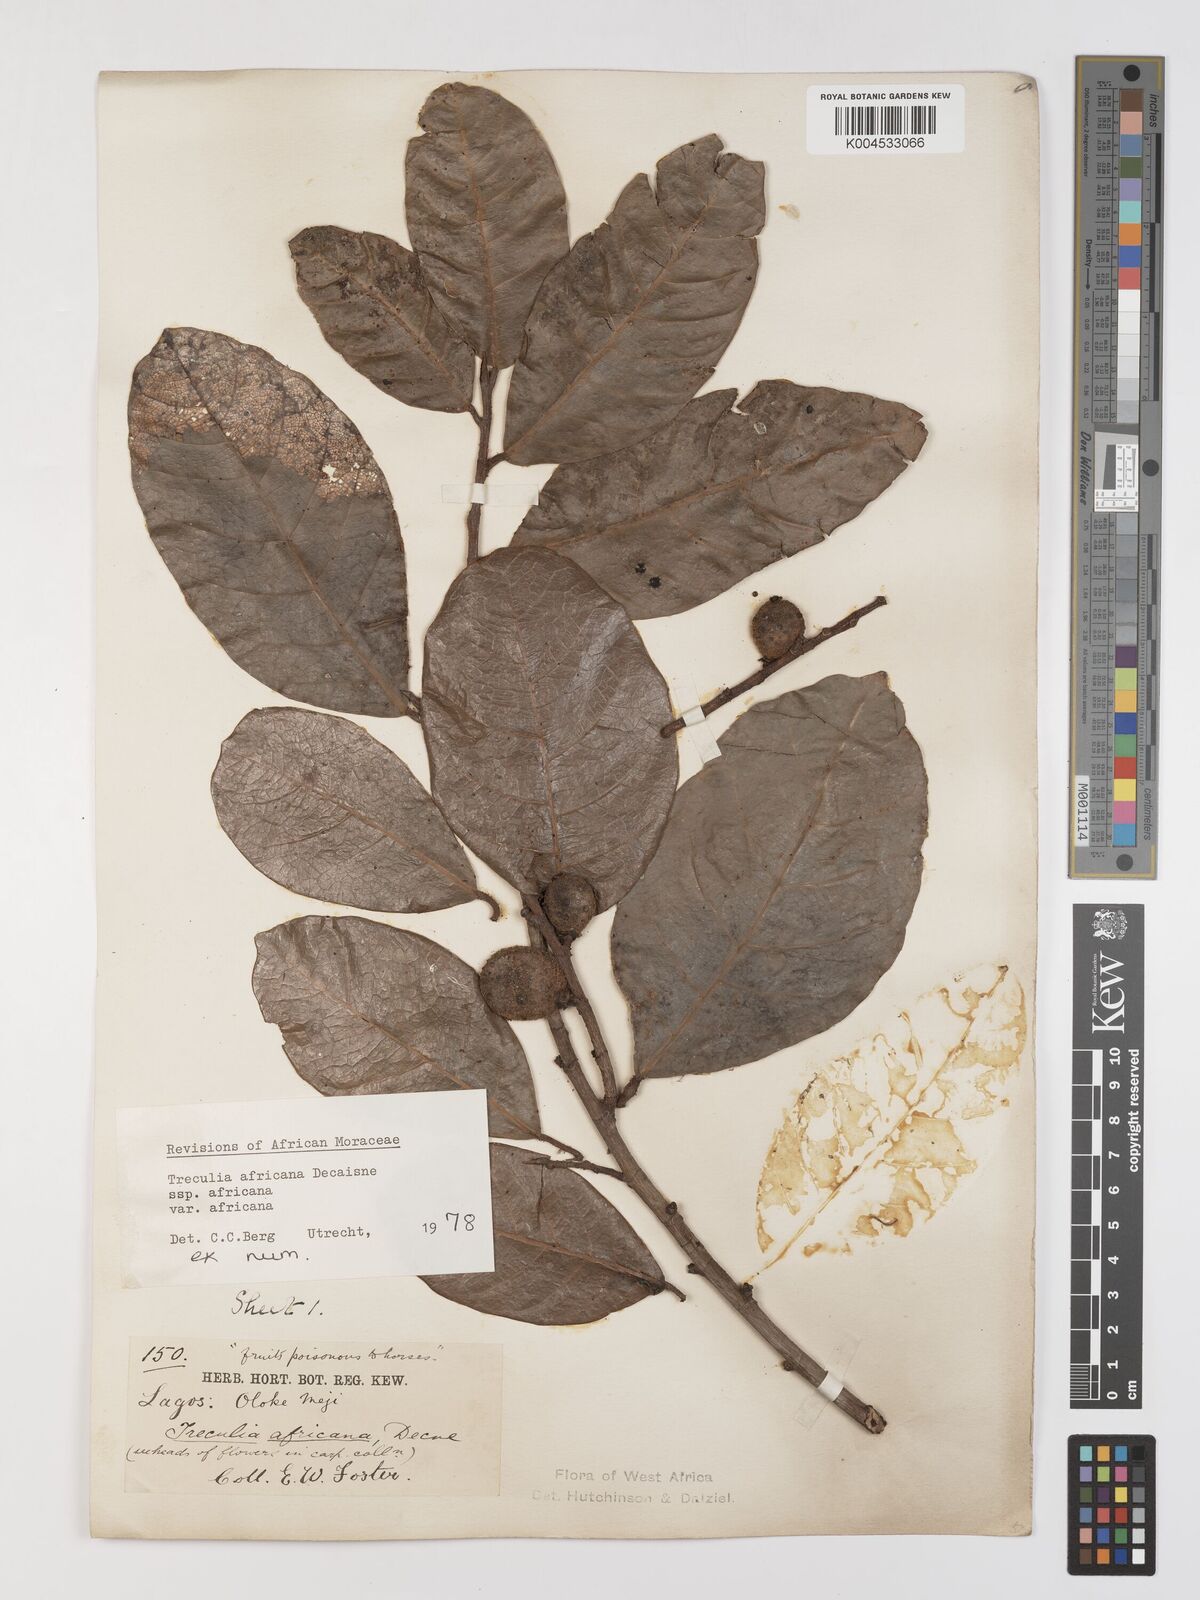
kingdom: Plantae
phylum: Tracheophyta
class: Magnoliopsida
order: Rosales
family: Moraceae
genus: Treculia
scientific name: Treculia africana
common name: African breadfruit
